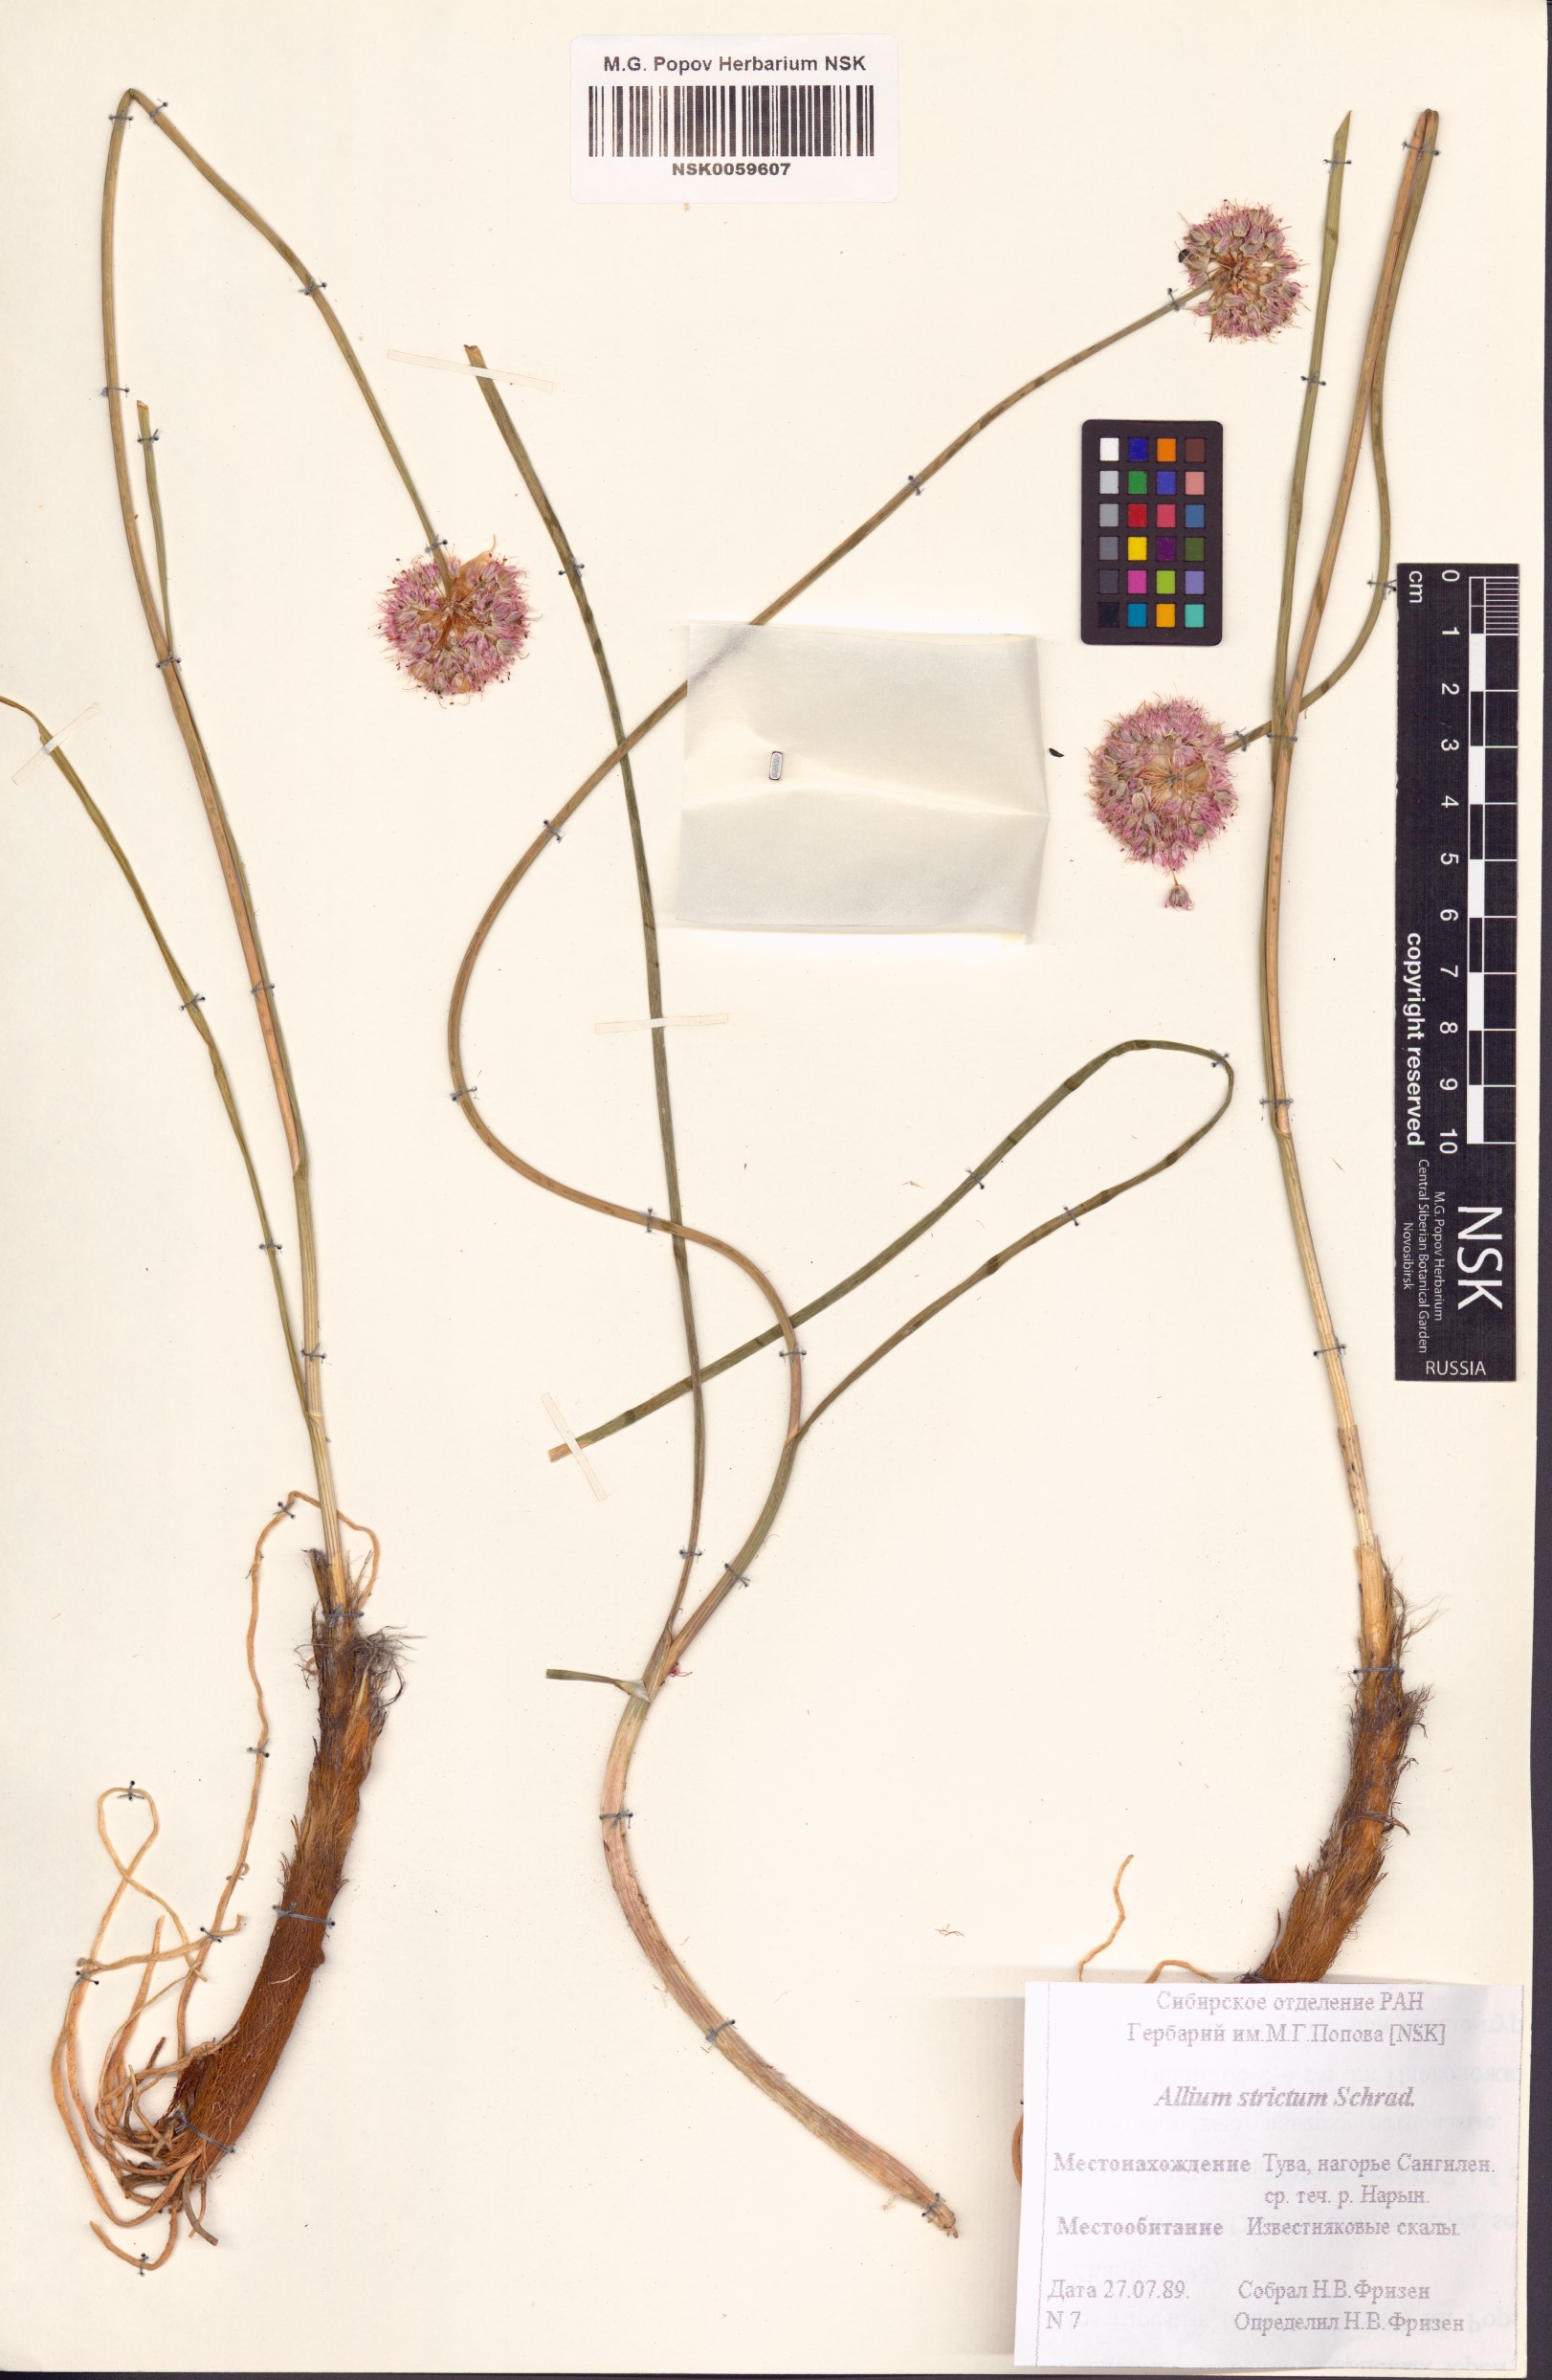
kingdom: Plantae
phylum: Tracheophyta
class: Liliopsida
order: Asparagales
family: Amaryllidaceae
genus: Allium
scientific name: Allium strictum
